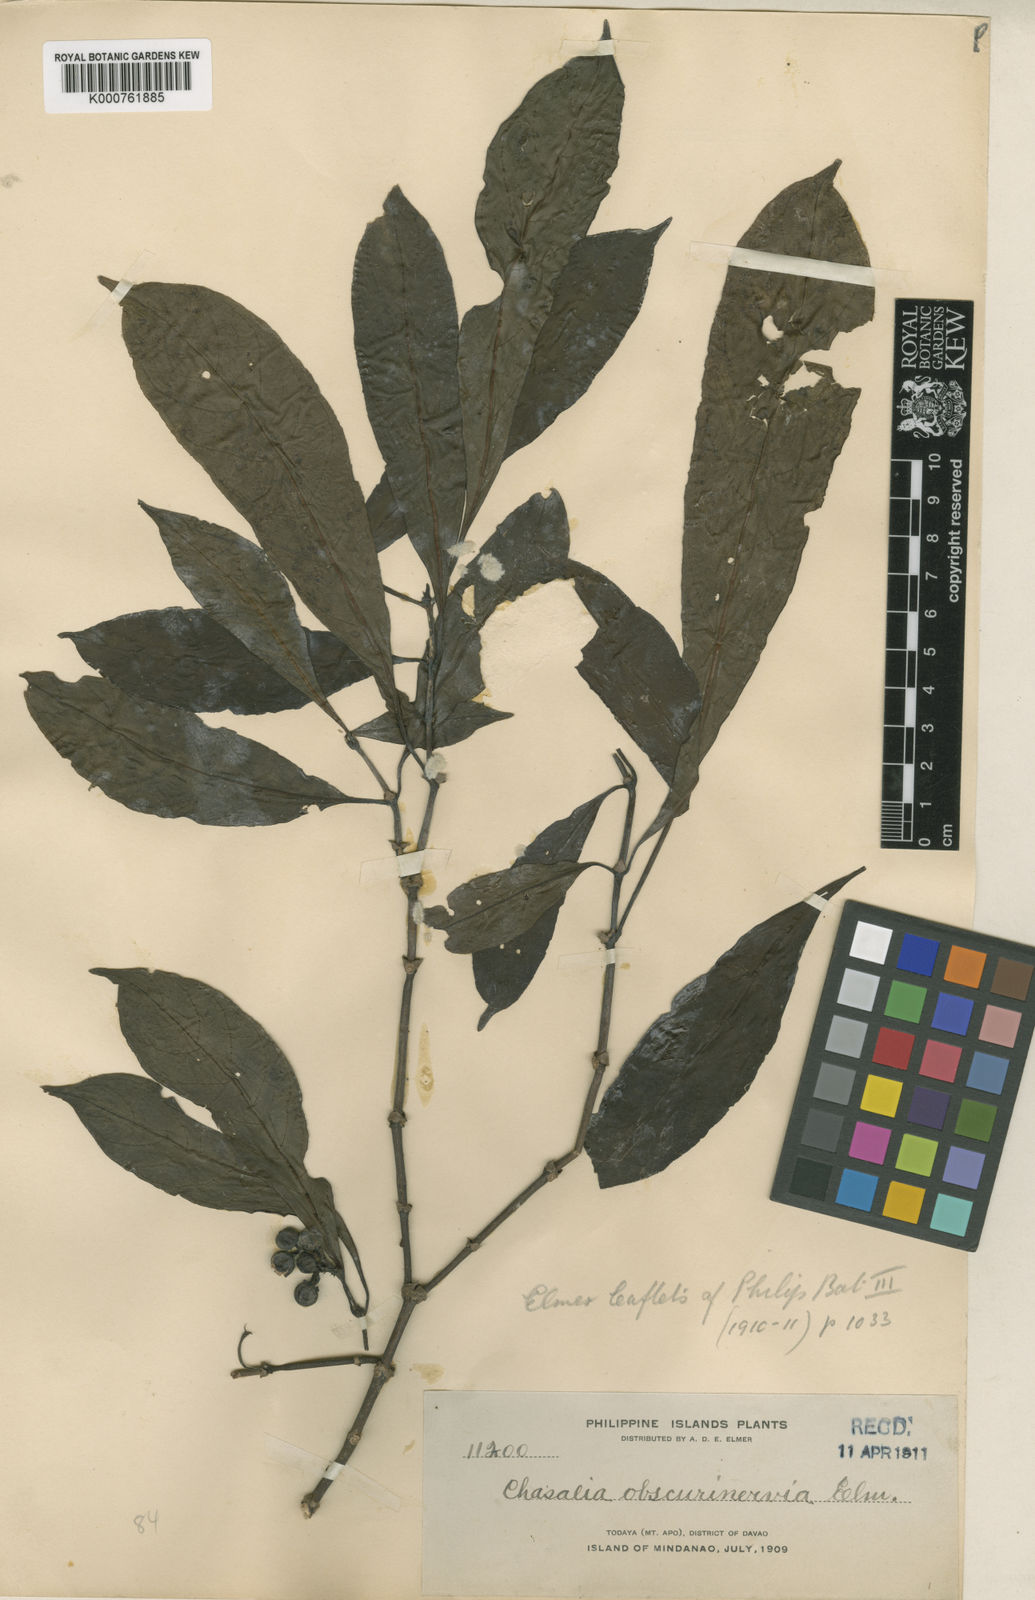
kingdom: Plantae
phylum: Tracheophyta
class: Magnoliopsida
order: Gentianales
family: Rubiaceae
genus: Chassalia
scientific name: Chassalia curviflora
